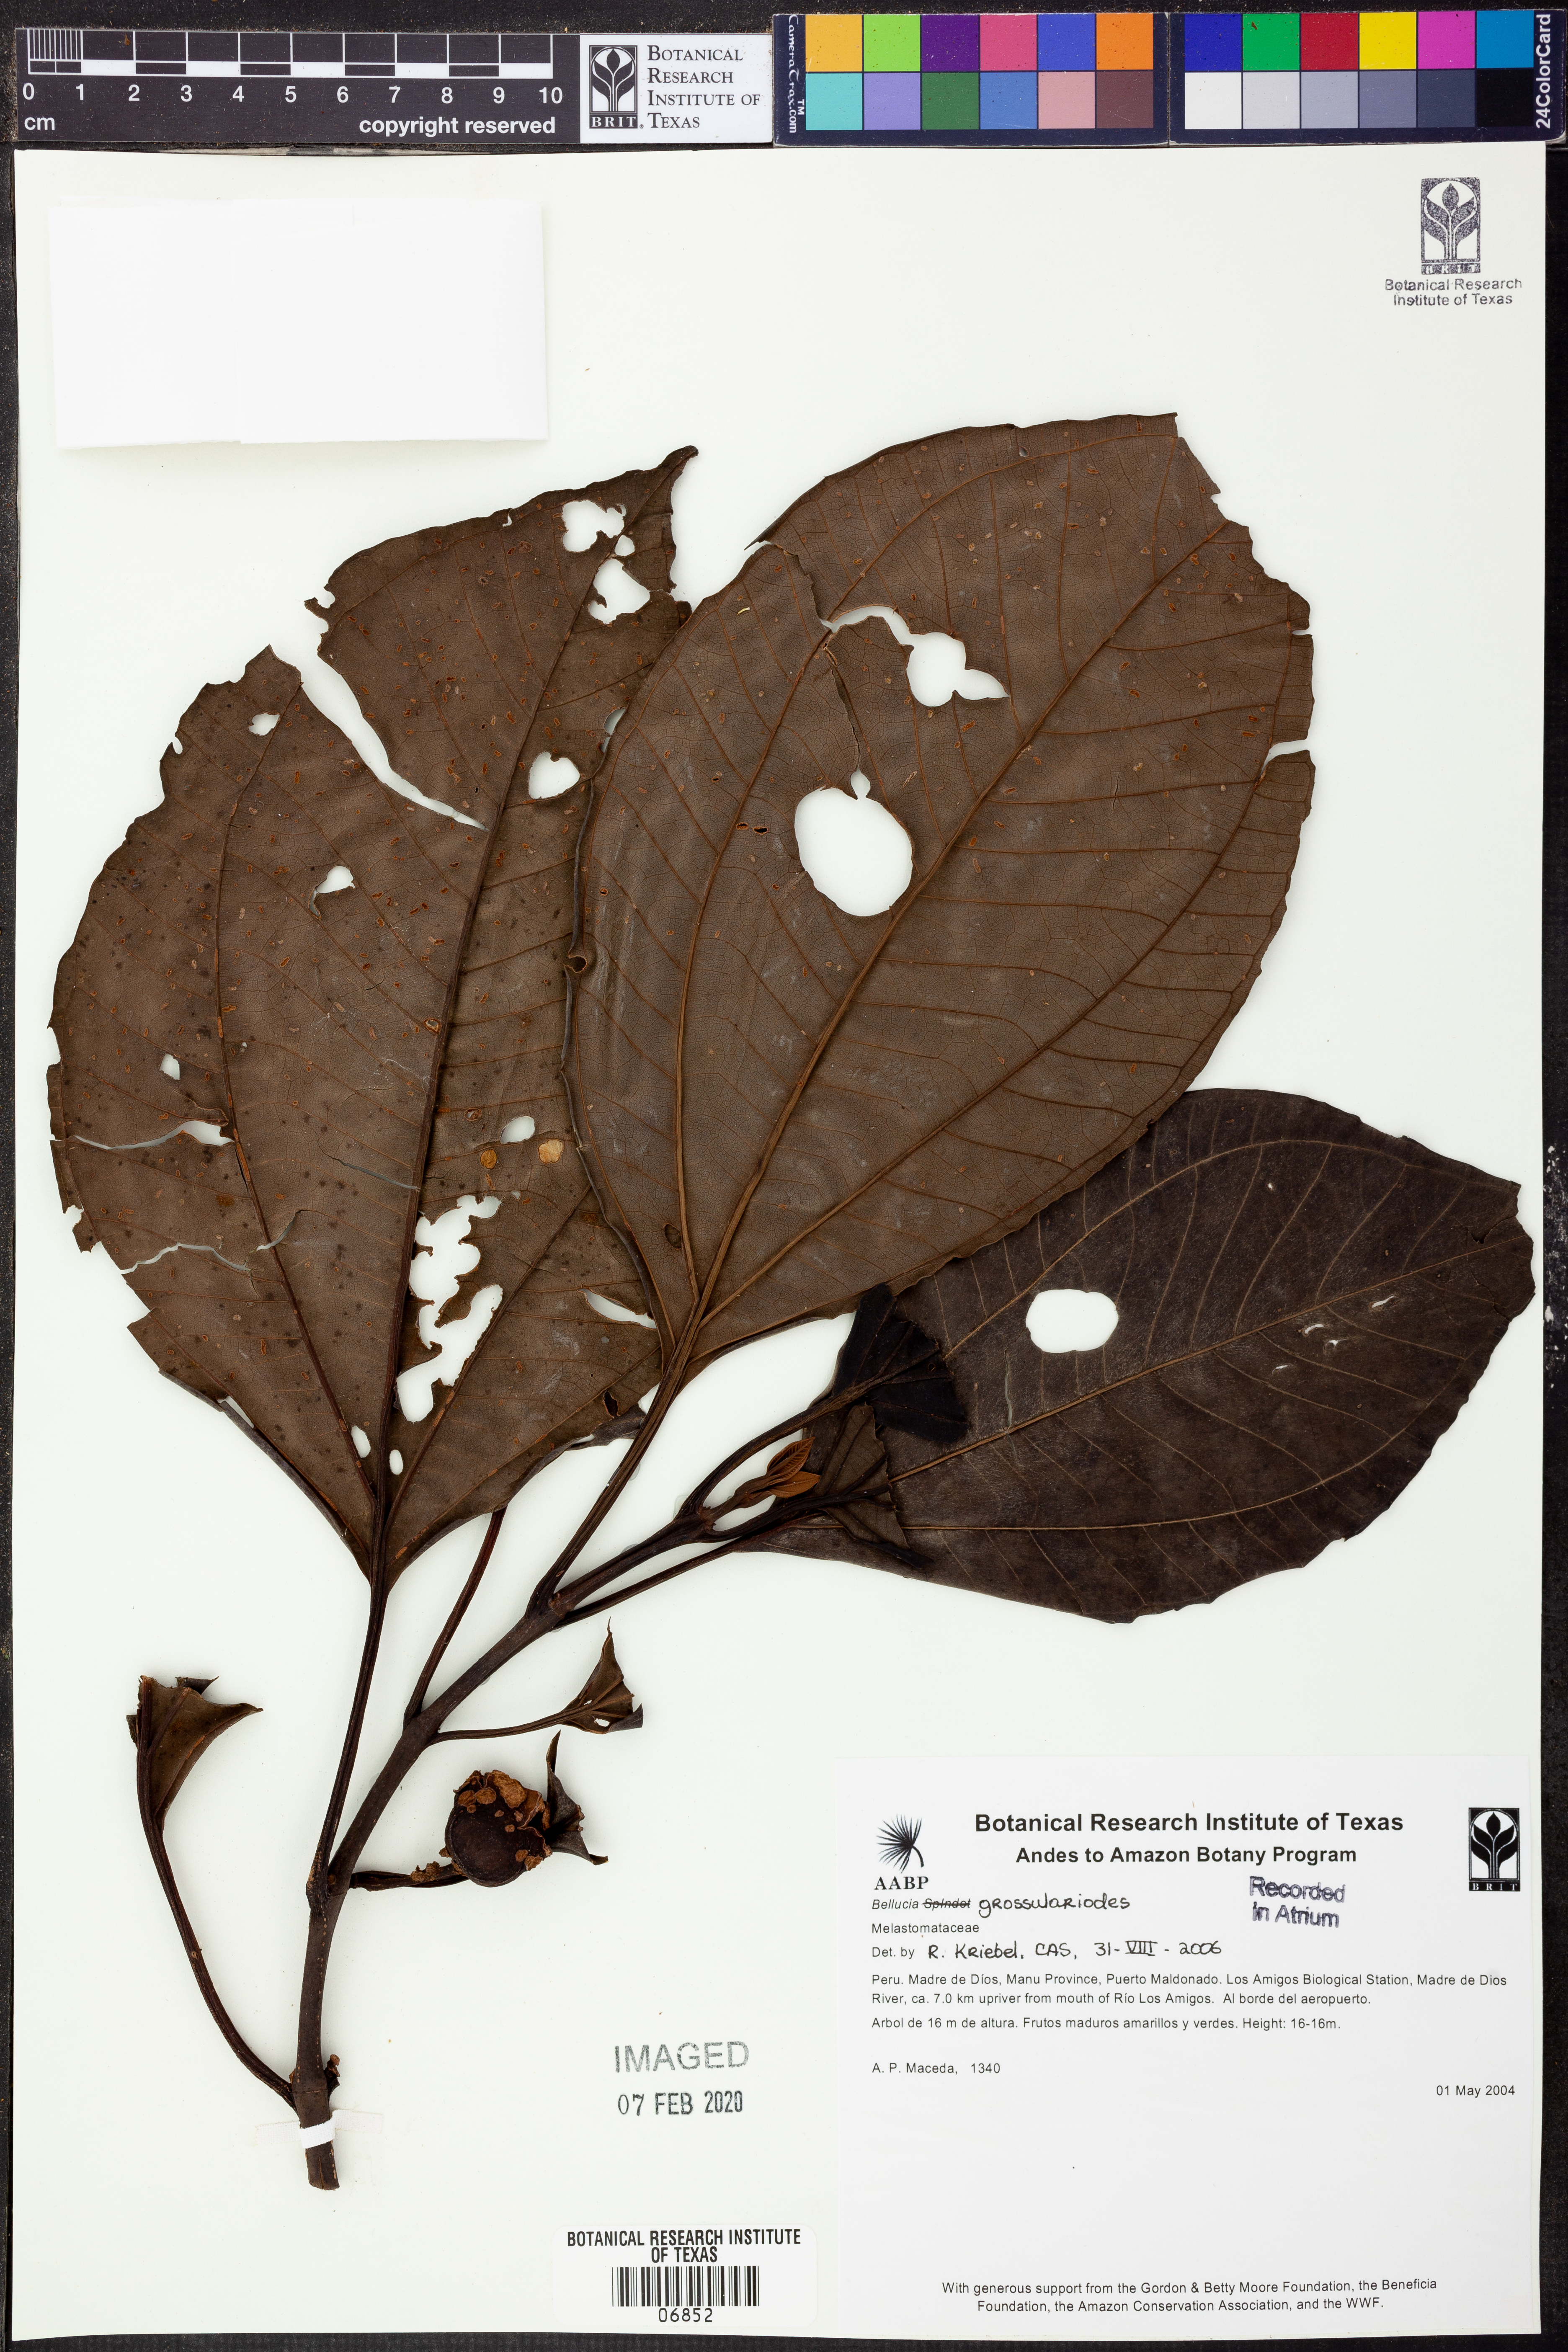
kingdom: Plantae
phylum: Tracheophyta
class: Magnoliopsida
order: Myrtales
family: Melastomataceae
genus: Bellucia
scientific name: Bellucia grossularioides
